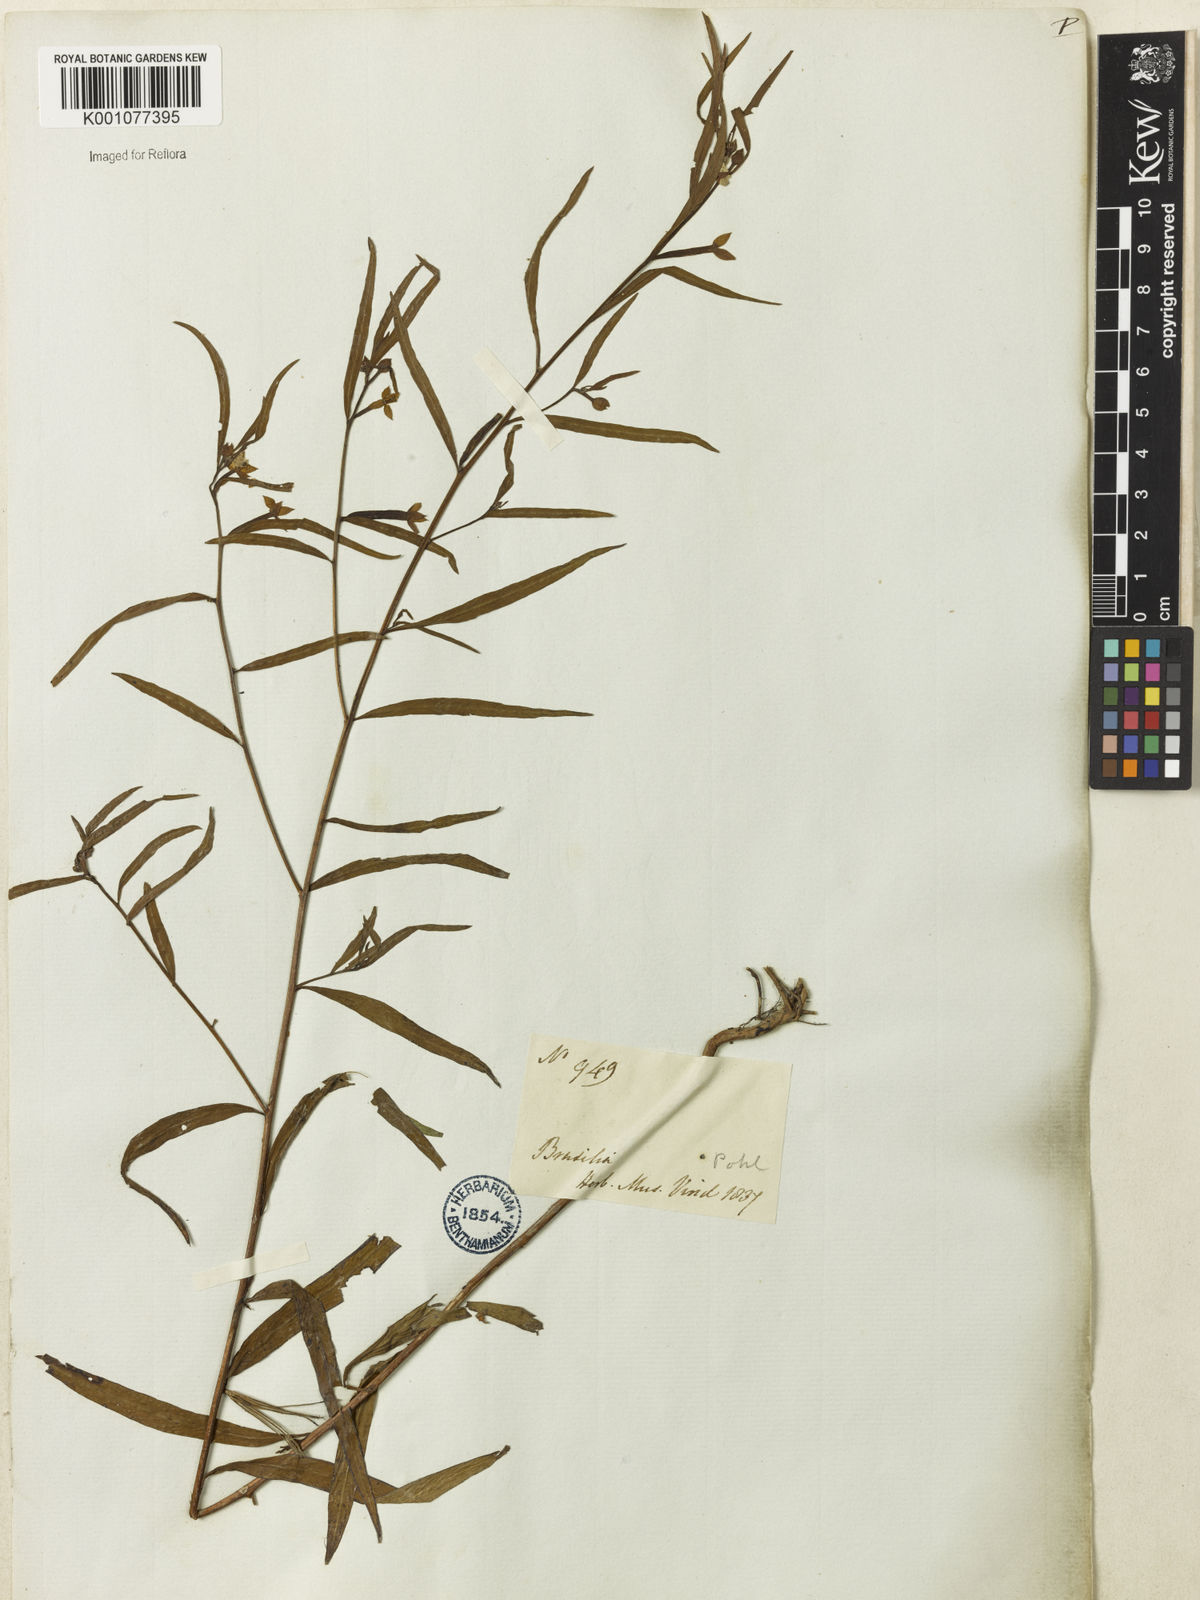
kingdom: Plantae
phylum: Tracheophyta
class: Magnoliopsida
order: Myrtales
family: Onagraceae
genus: Ludwigia
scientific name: Ludwigia octovalvis
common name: Water-primrose
